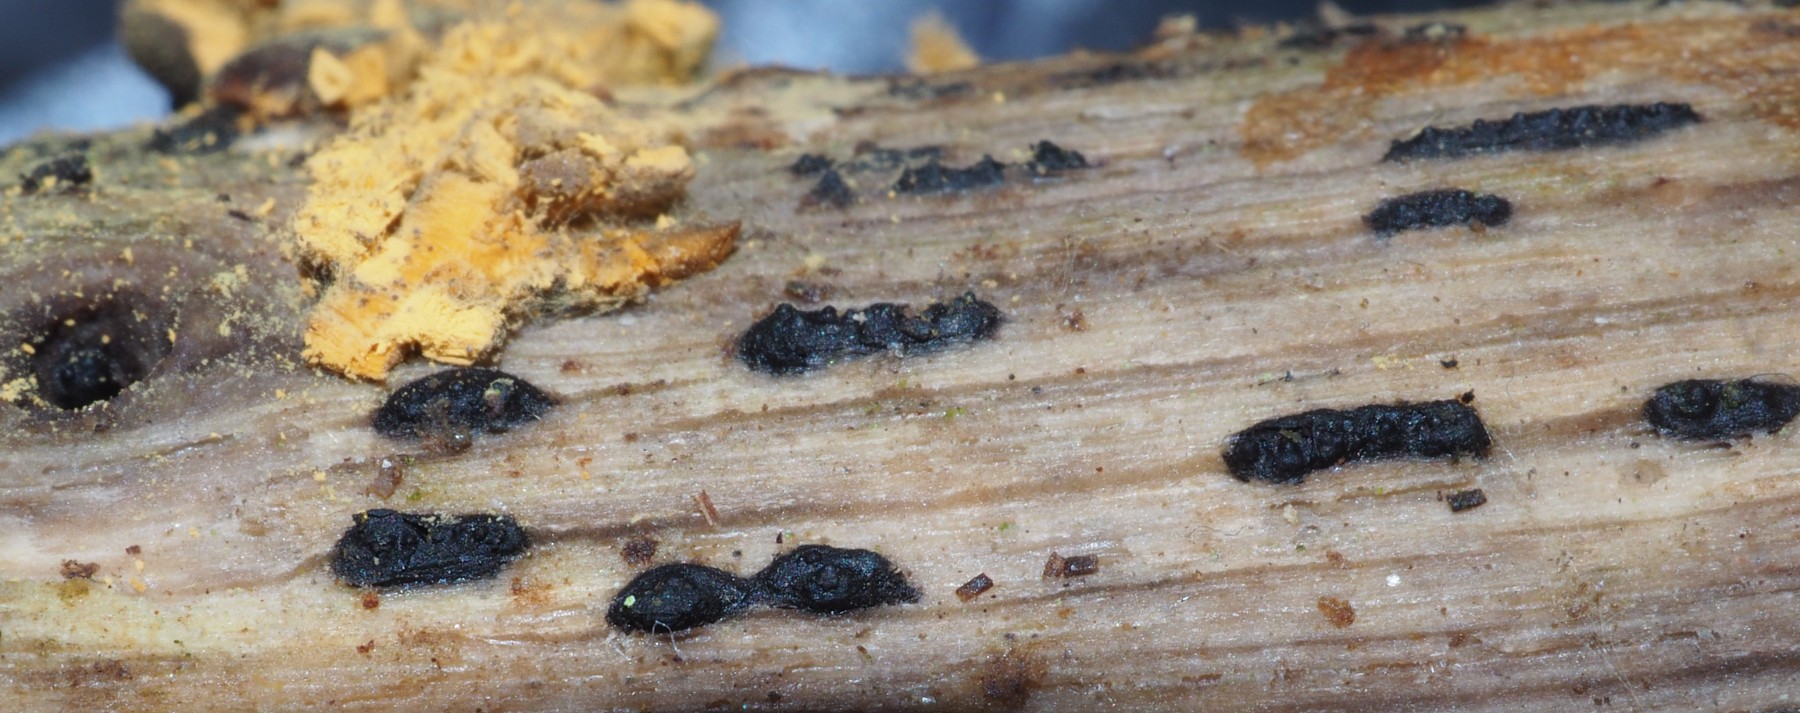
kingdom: Fungi
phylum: Ascomycota
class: Sordariomycetes
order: Xylariales
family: Xylariaceae
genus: Euepixylon
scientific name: Euepixylon udum
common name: ege-kuldyne
